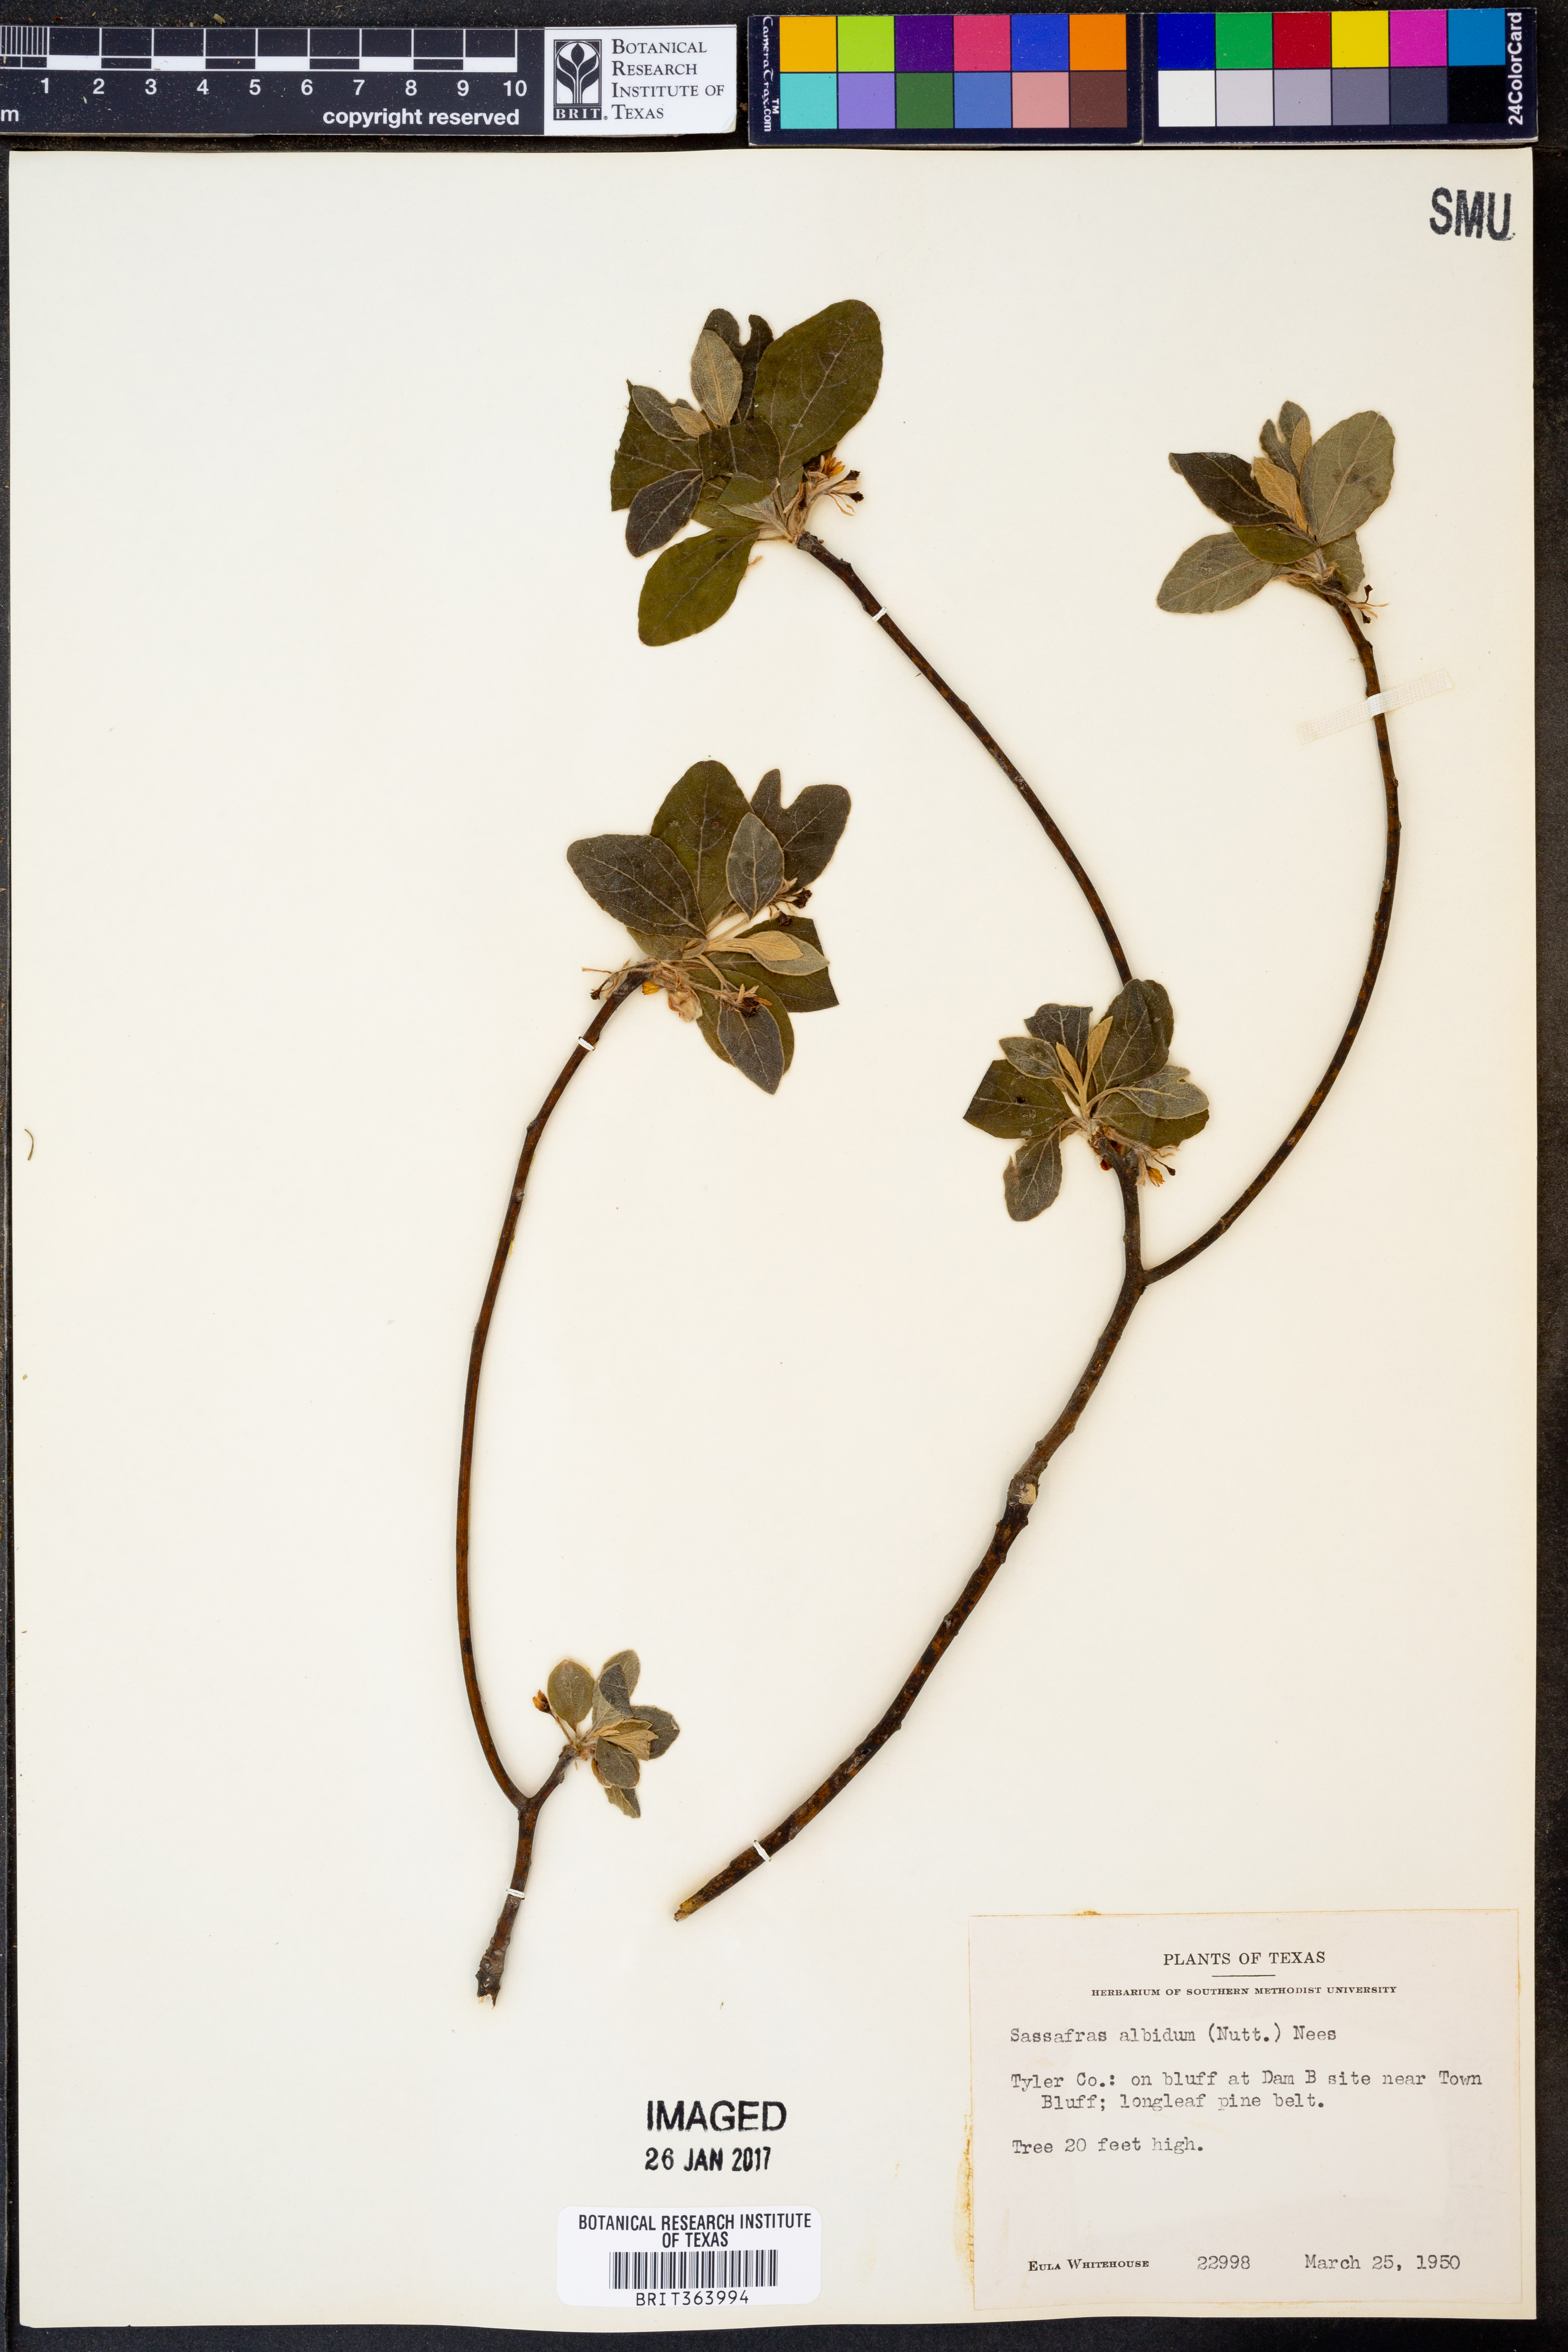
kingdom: Plantae
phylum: Tracheophyta
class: Magnoliopsida
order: Laurales
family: Lauraceae
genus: Sassafras
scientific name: Sassafras albidum
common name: Sassafras
